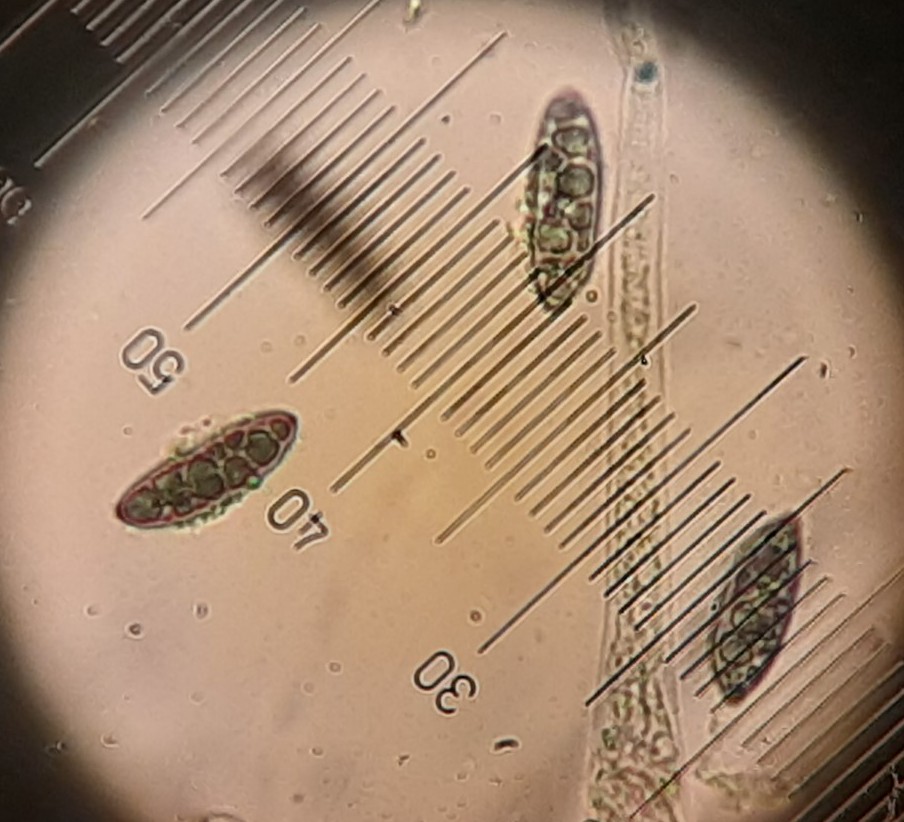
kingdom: Fungi
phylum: Ascomycota
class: Sordariomycetes
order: Xylariales
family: Xylariaceae
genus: Rosellinia
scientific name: Rosellinia corticium
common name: måtte-kulkaviar
